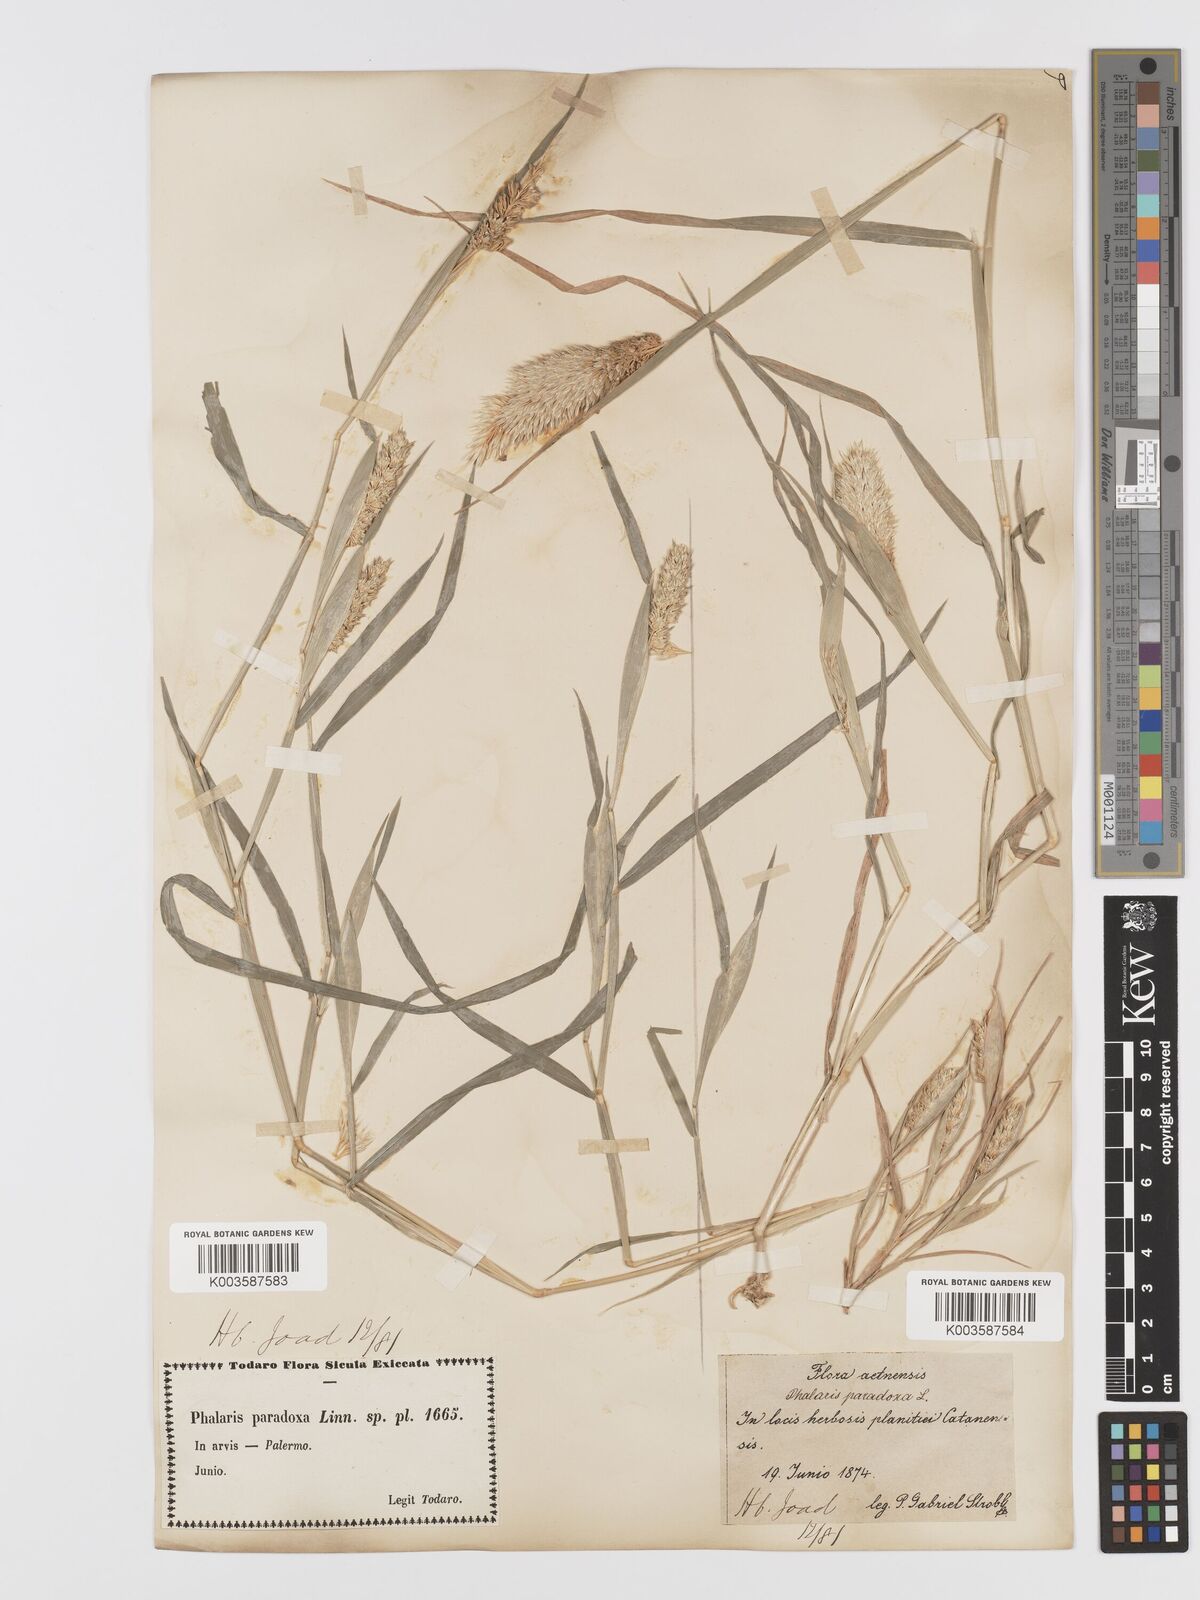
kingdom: Plantae
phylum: Tracheophyta
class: Liliopsida
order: Poales
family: Poaceae
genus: Phalaris
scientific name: Phalaris paradoxa
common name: Awned canary-grass
